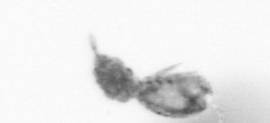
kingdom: Animalia
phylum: Arthropoda
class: Copepoda
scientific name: Copepoda
